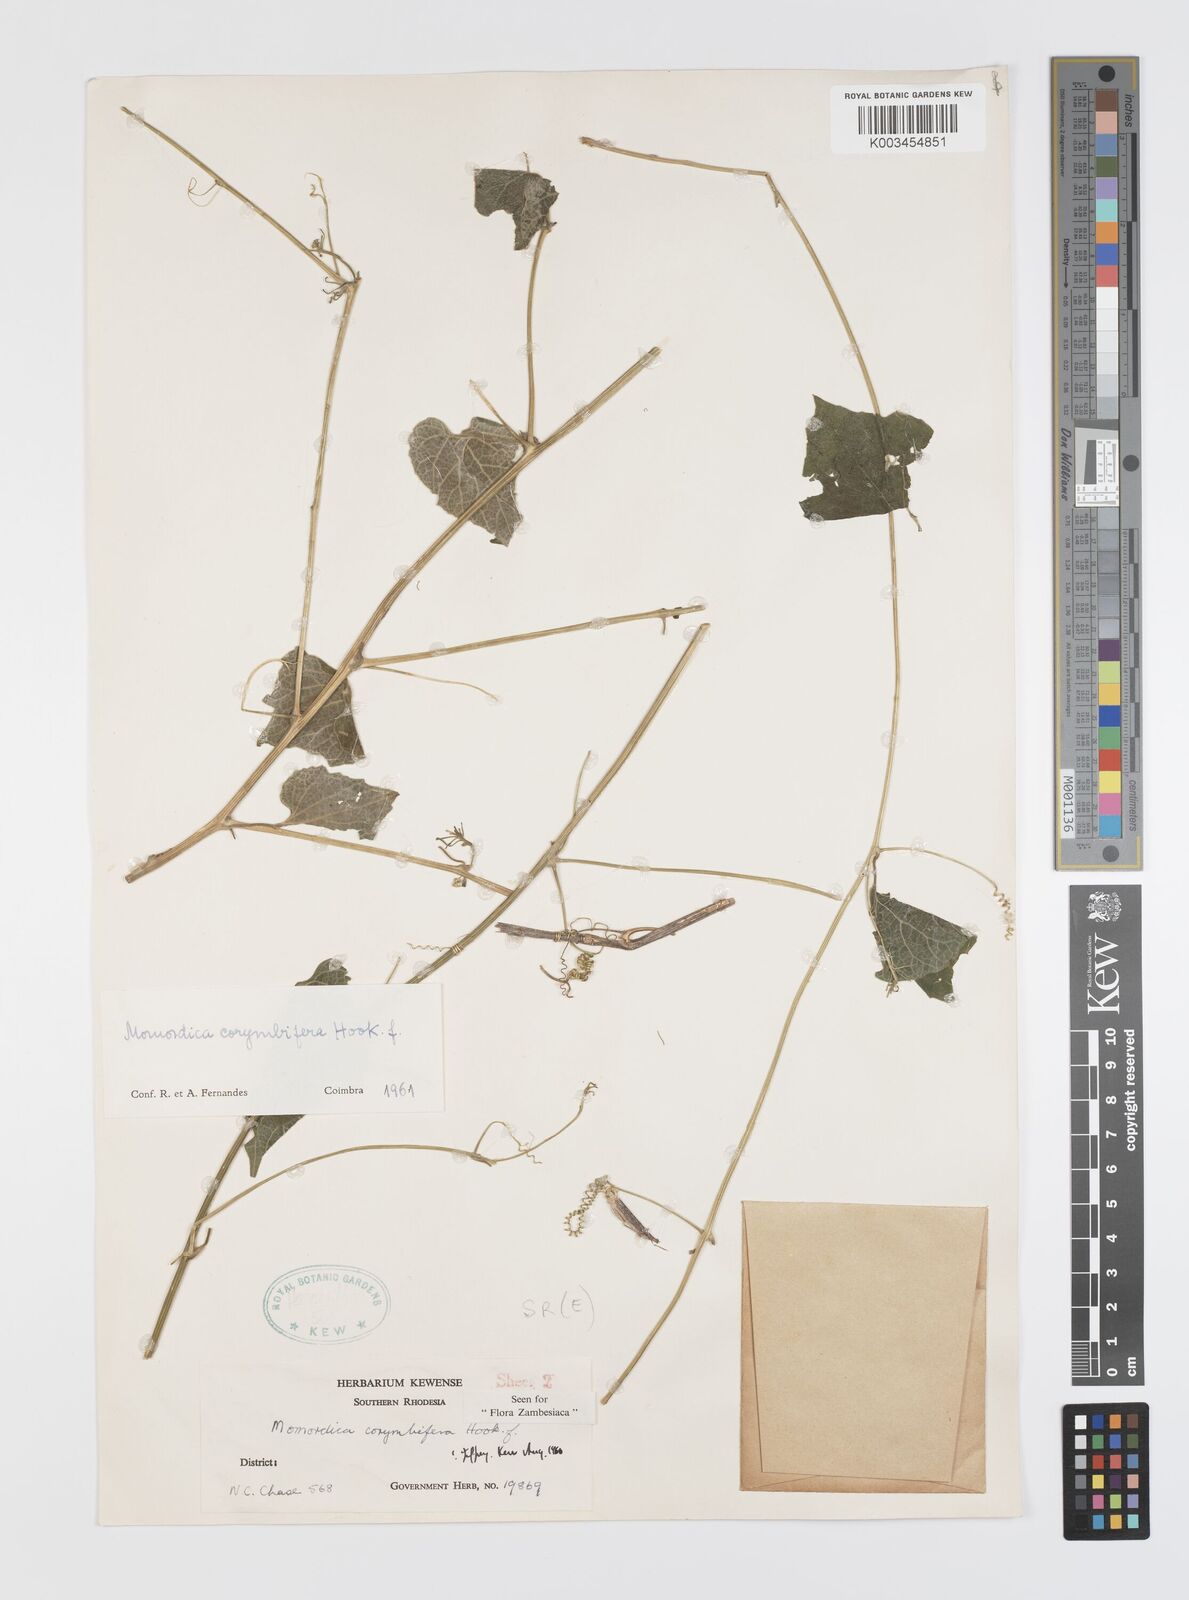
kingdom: Plantae
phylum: Tracheophyta
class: Magnoliopsida
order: Cucurbitales
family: Cucurbitaceae
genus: Momordica
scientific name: Momordica corymbifera
